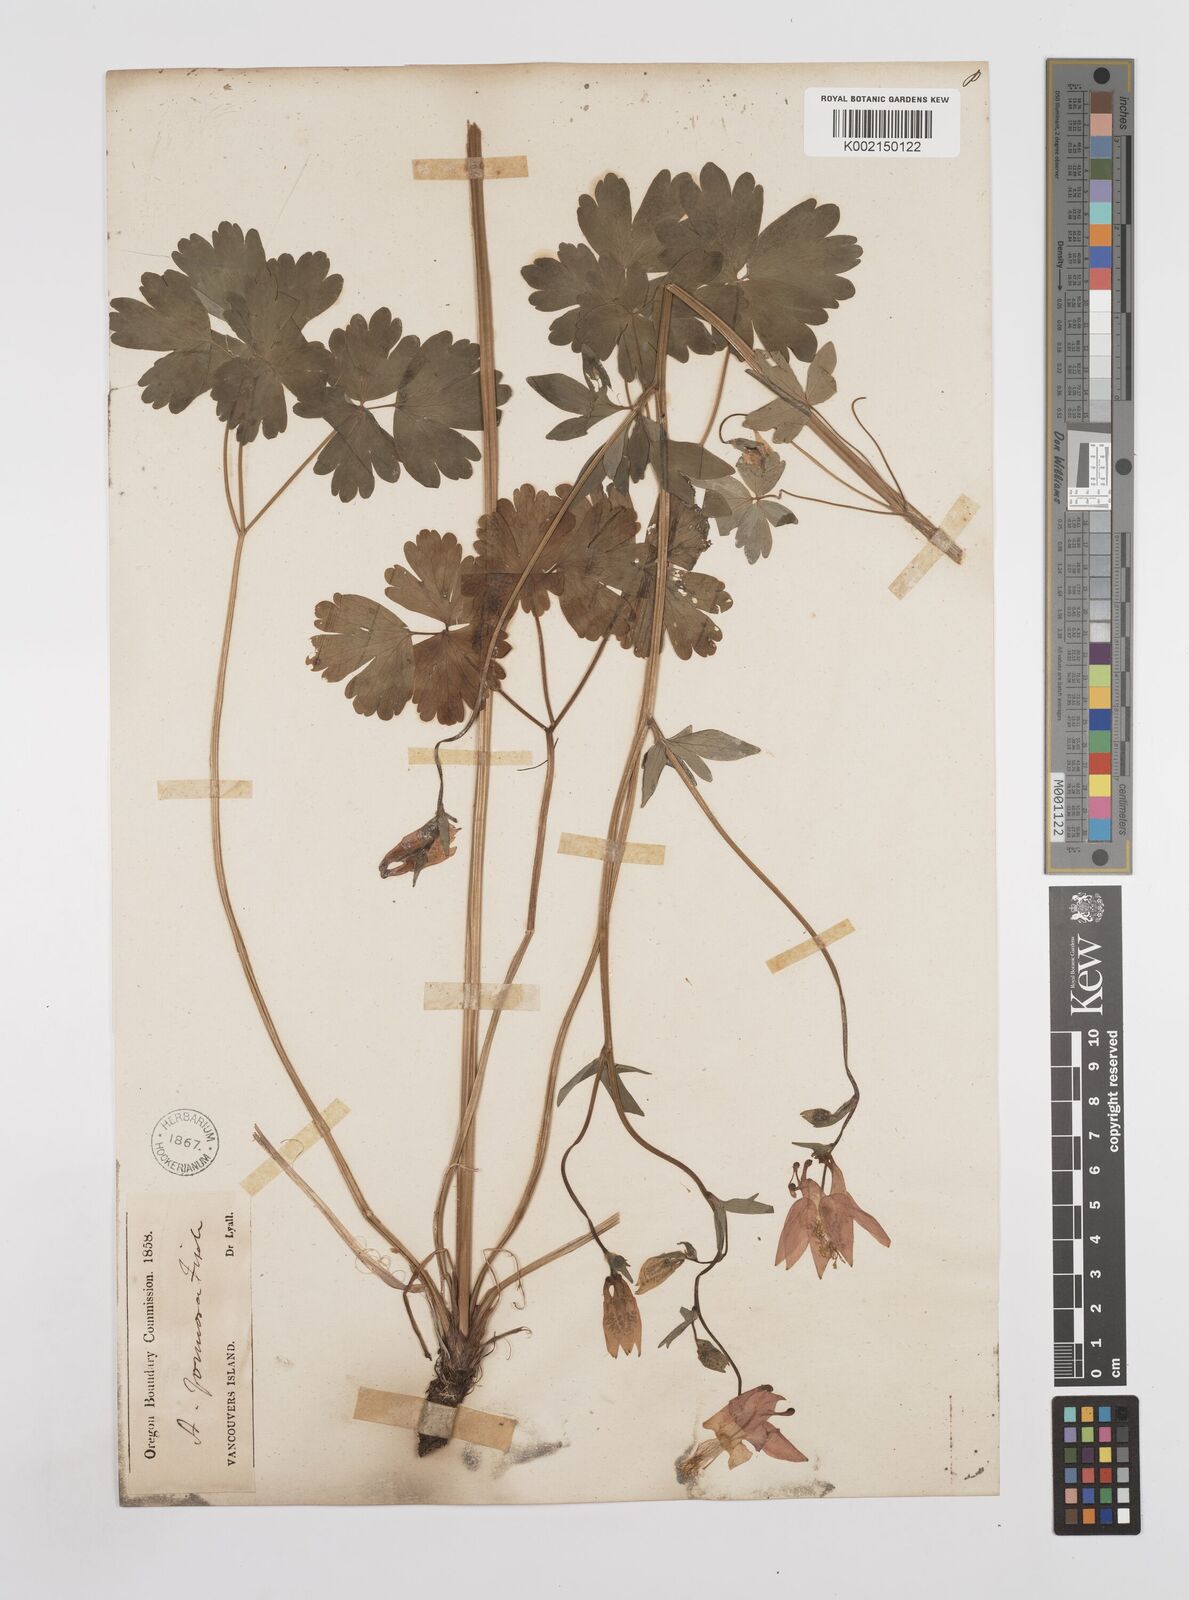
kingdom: Plantae
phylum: Tracheophyta
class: Magnoliopsida
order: Ranunculales
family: Ranunculaceae
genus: Aquilegia
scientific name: Aquilegia
